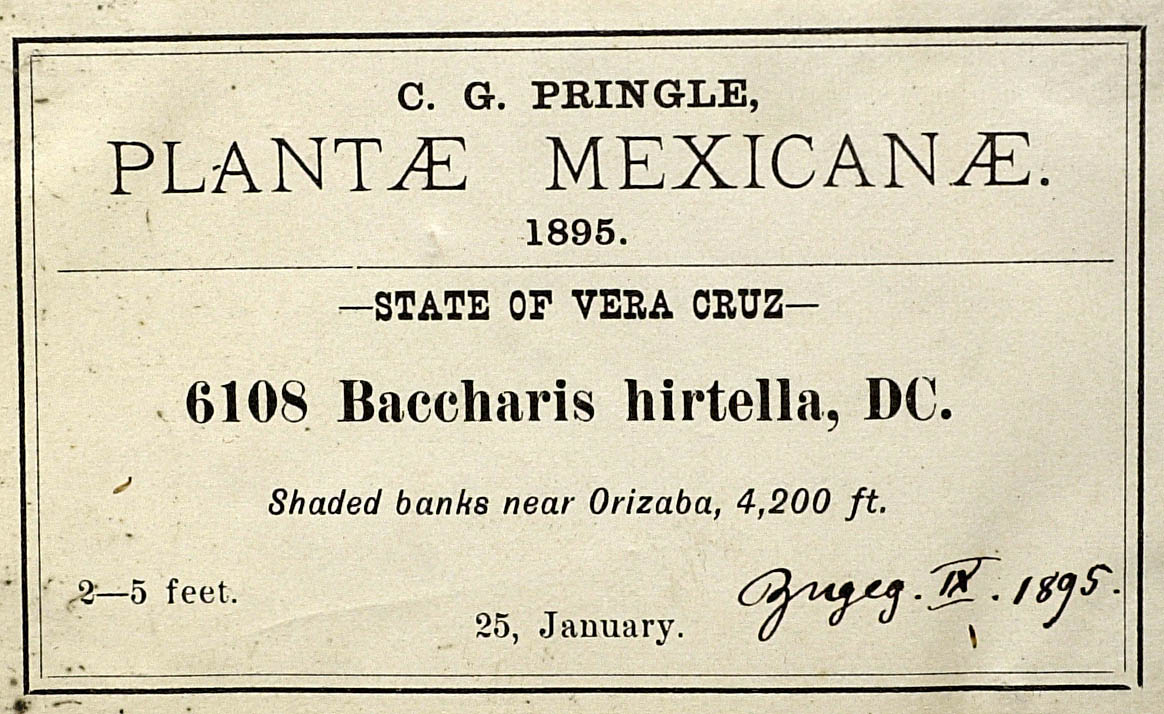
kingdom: Plantae
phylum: Tracheophyta
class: Magnoliopsida
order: Asterales
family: Asteraceae
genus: Archibaccharis
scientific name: Archibaccharis intermedia
